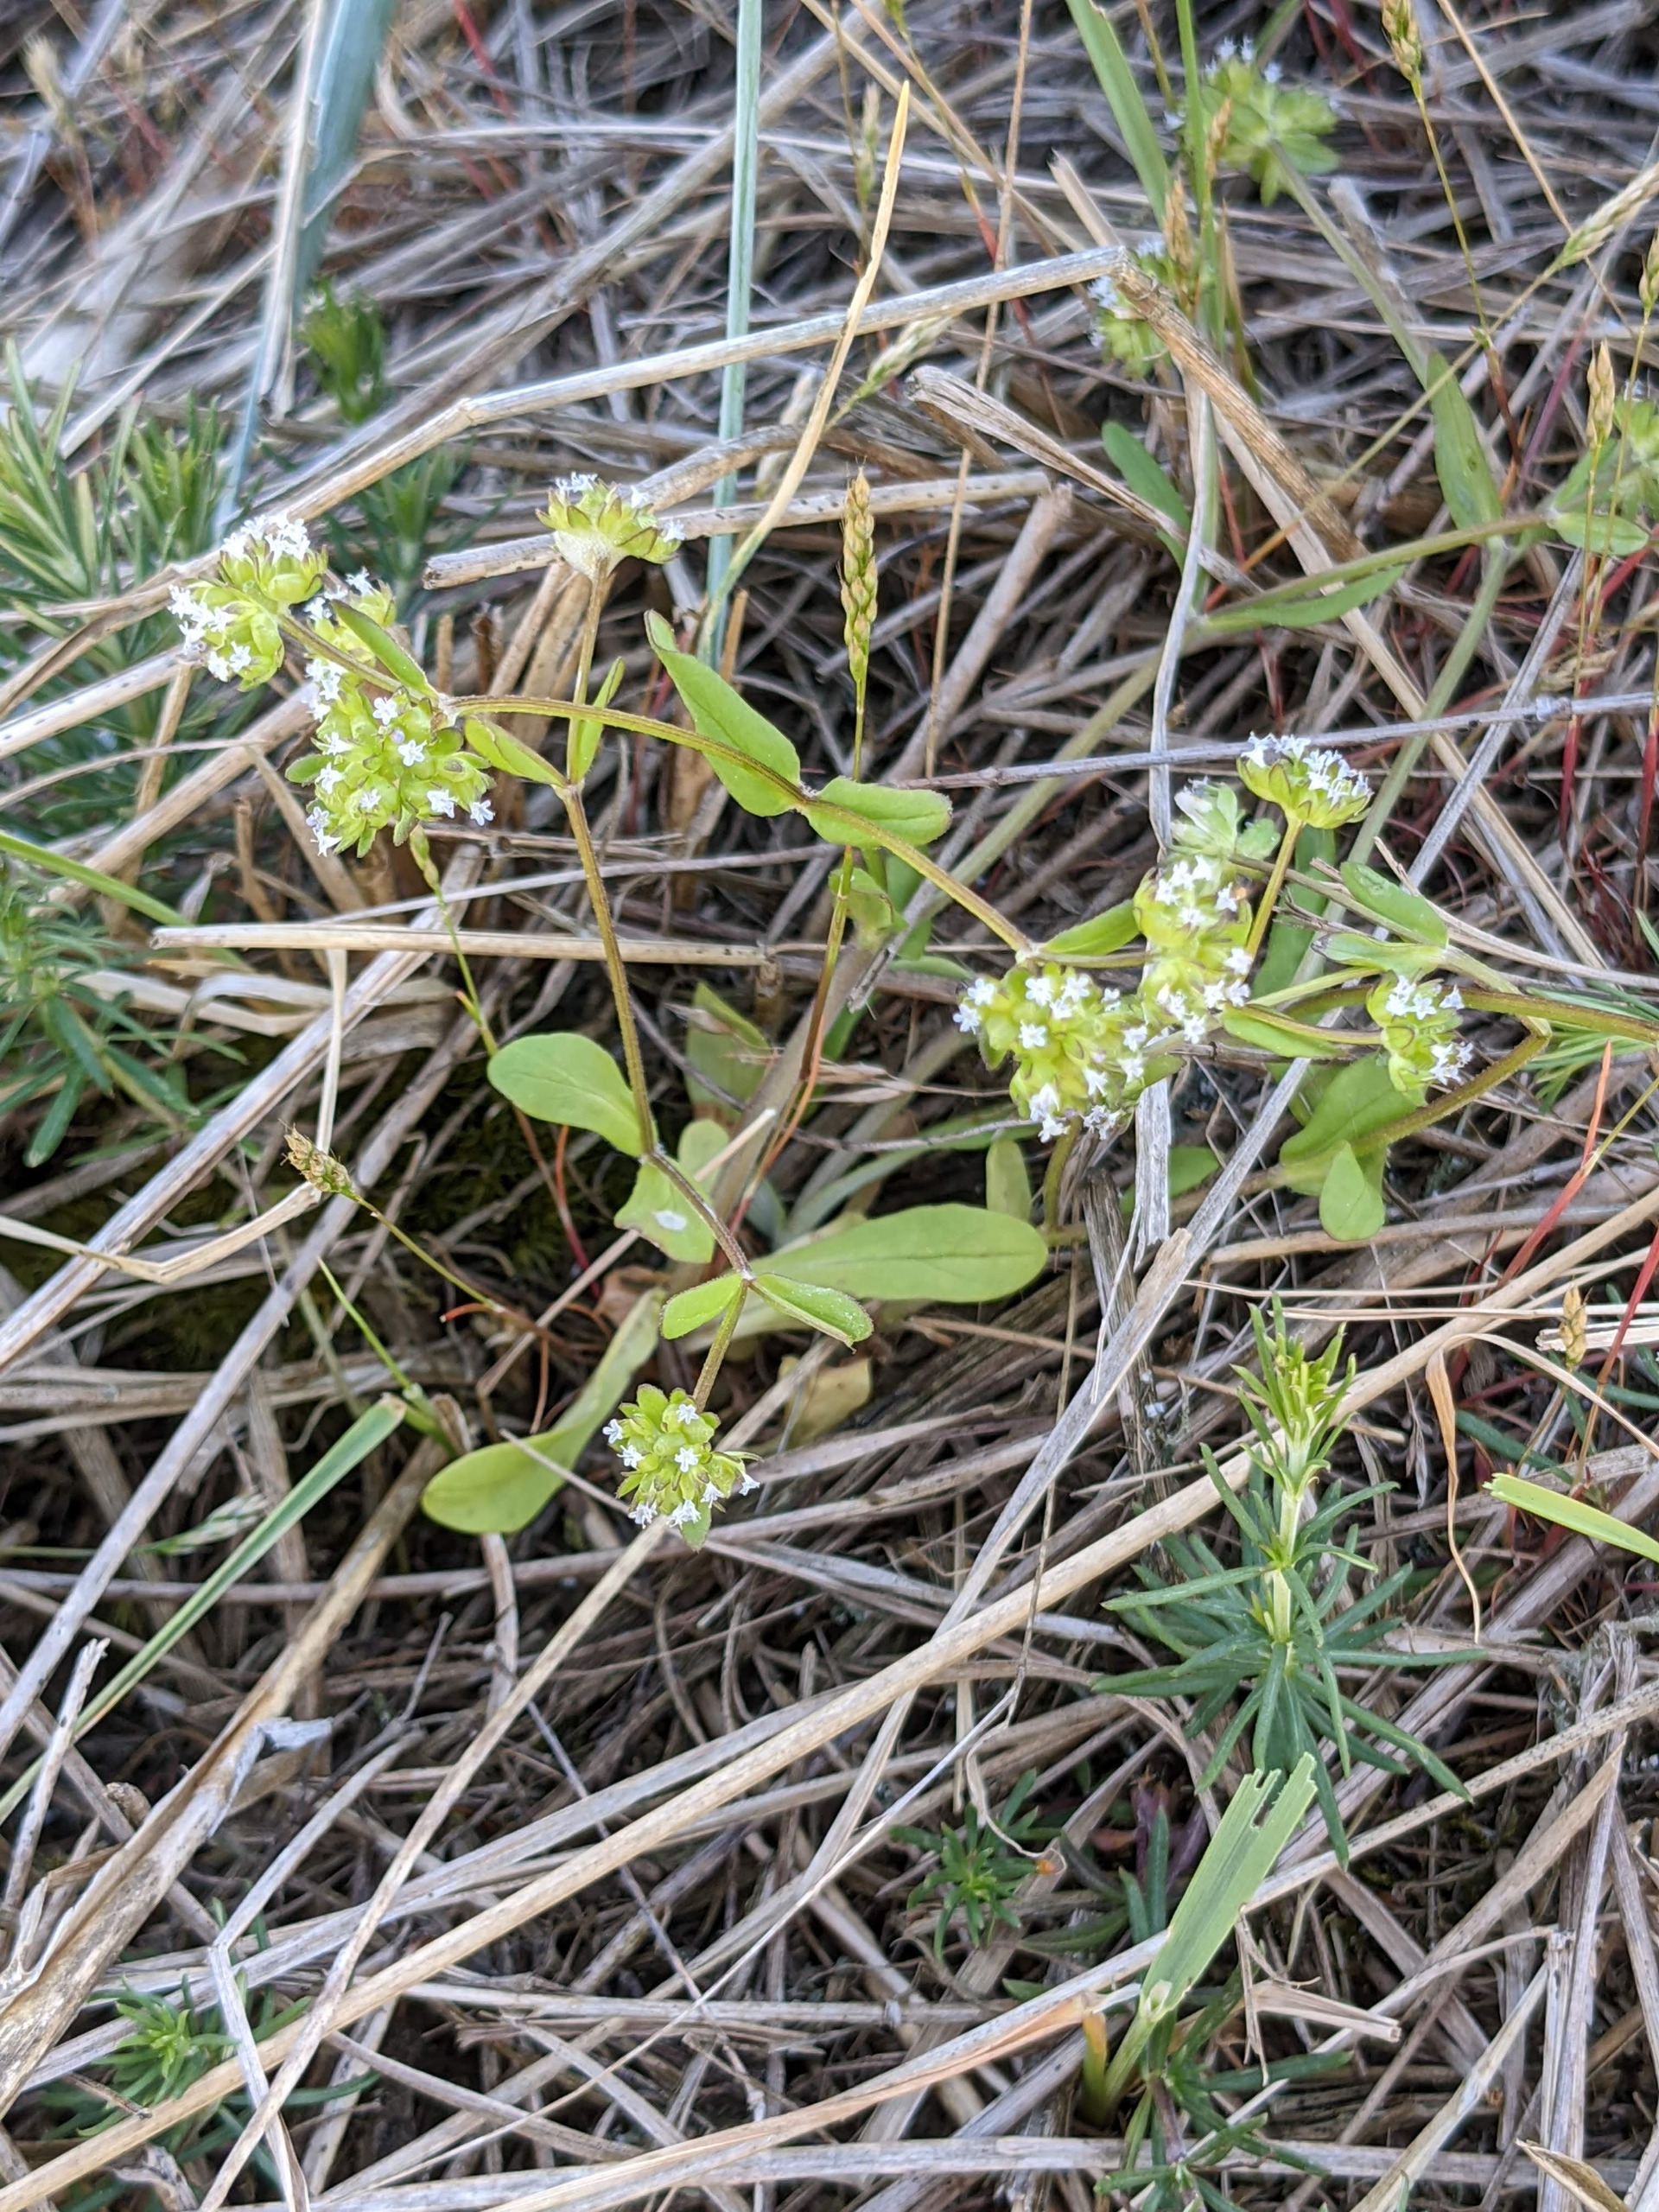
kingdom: Plantae
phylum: Tracheophyta
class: Magnoliopsida
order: Dipsacales
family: Caprifoliaceae
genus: Valerianella
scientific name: Valerianella locusta
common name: Tandfri vårsalat
